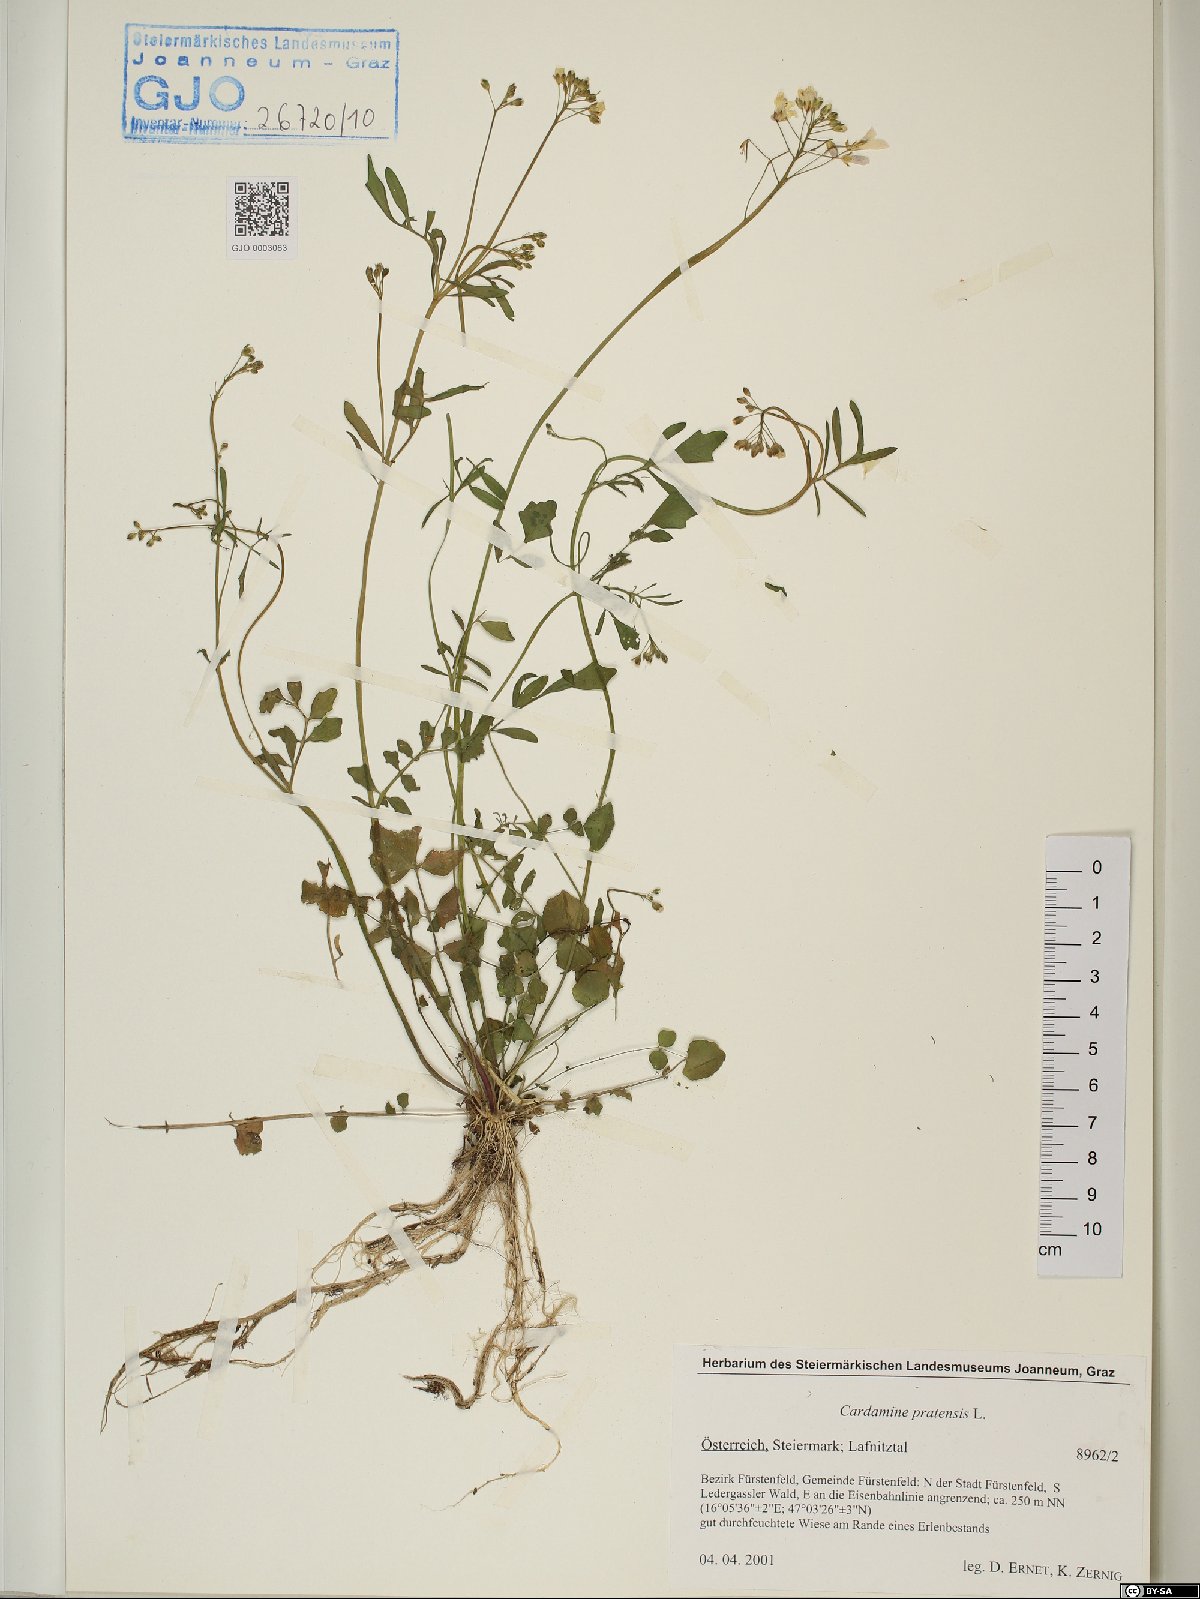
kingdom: Plantae
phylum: Tracheophyta
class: Magnoliopsida
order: Brassicales
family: Brassicaceae
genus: Cardamine
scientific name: Cardamine pratensis
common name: Cuckoo flower
